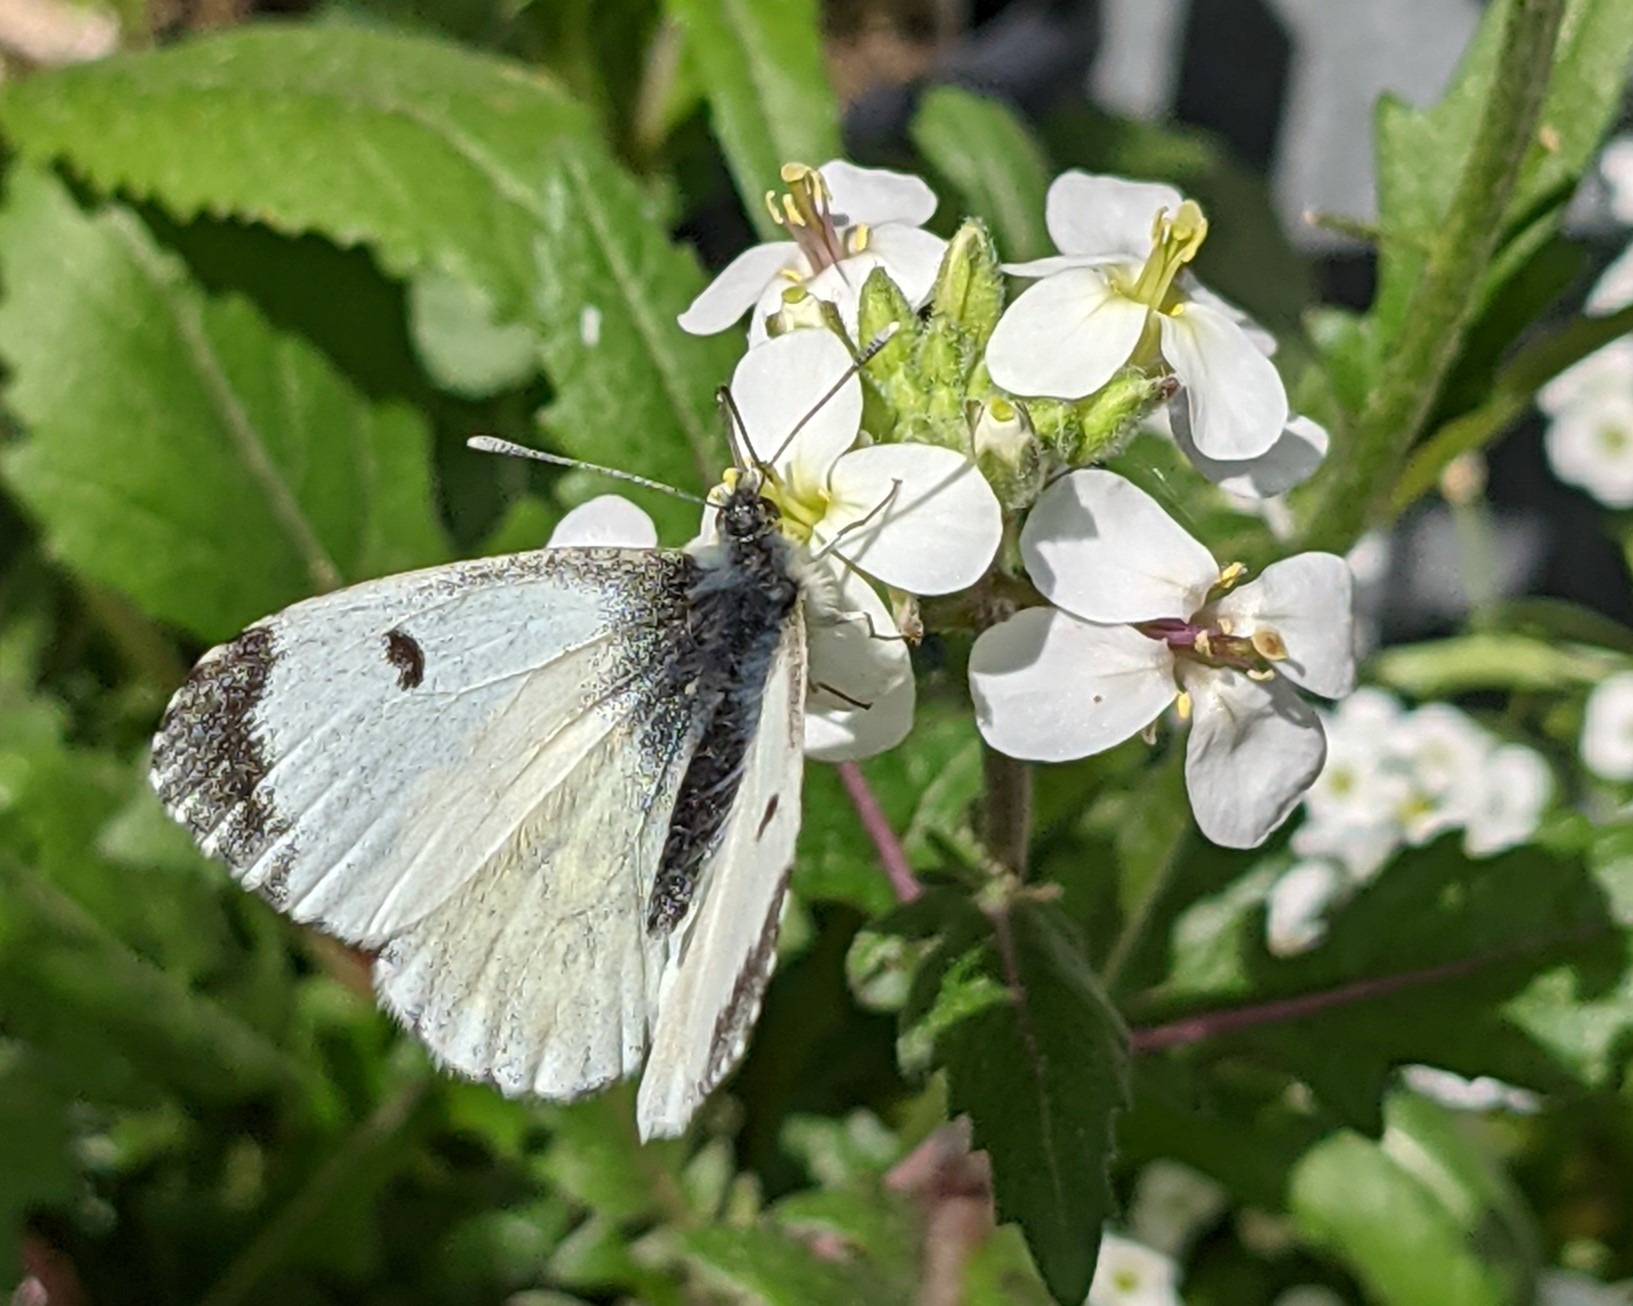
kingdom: Animalia
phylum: Arthropoda
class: Insecta
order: Lepidoptera
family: Pieridae
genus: Anthocharis
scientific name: Anthocharis cardamines
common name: Aurora
